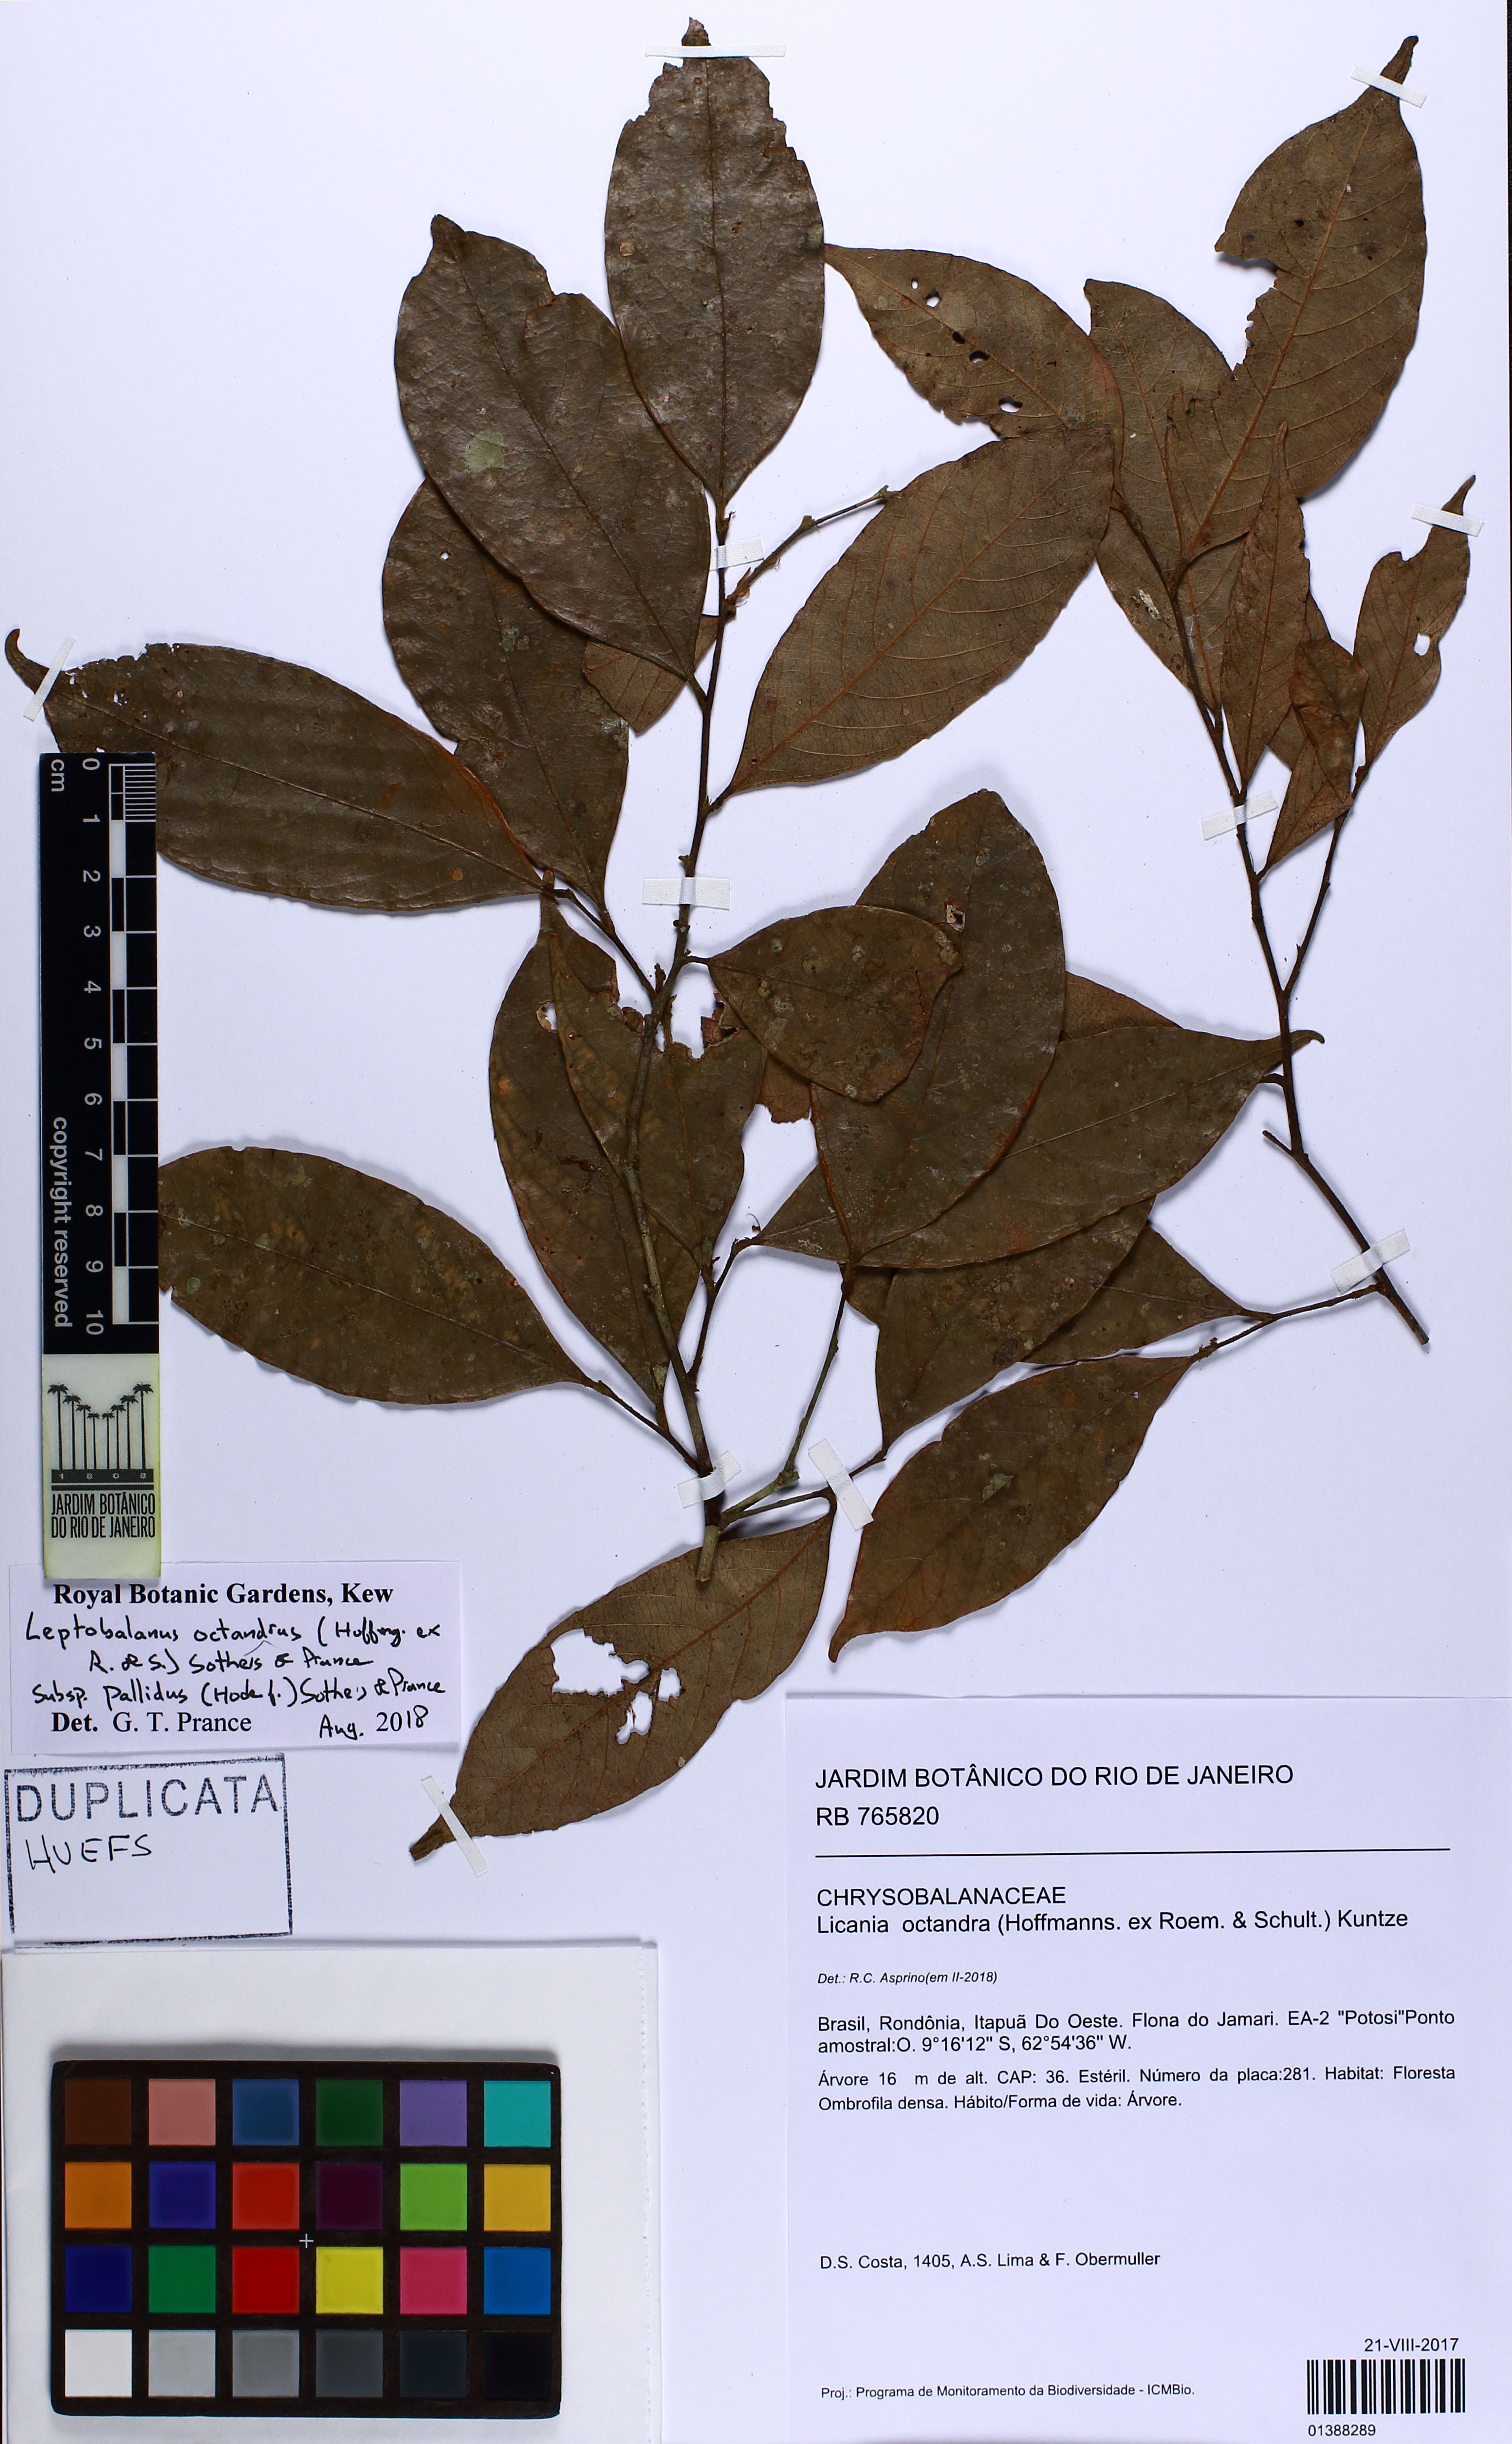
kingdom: Plantae
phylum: Tracheophyta
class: Magnoliopsida
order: Malpighiales
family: Chrysobalanaceae
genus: Leptobalanus
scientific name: Leptobalanus octandrus
